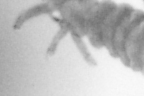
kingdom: Animalia
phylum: Annelida
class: Polychaeta
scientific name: Polychaeta
